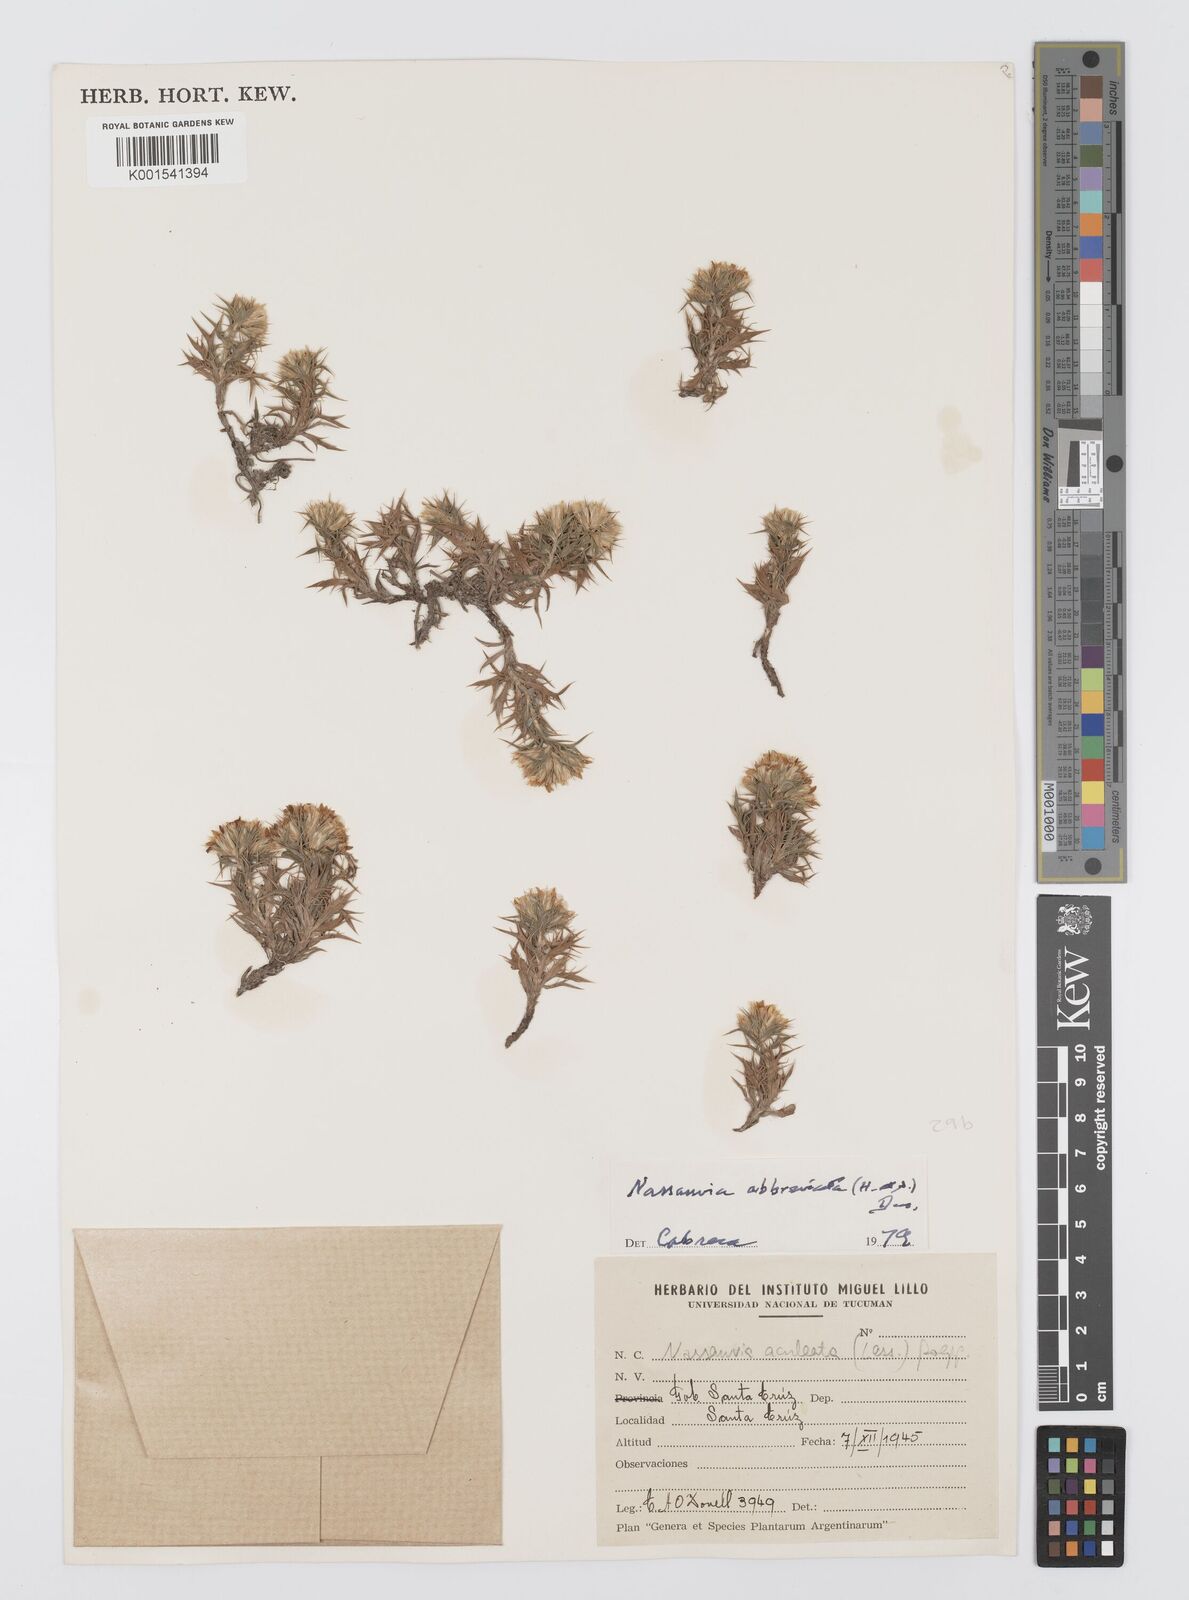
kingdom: Plantae
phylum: Tracheophyta
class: Magnoliopsida
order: Asterales
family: Asteraceae
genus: Nassauvia
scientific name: Nassauvia aculeata
